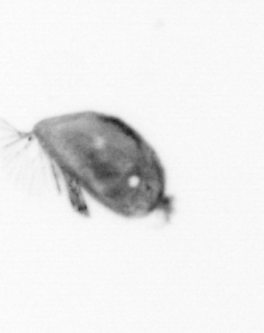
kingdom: Animalia
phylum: Arthropoda
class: Maxillopoda
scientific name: Maxillopoda
